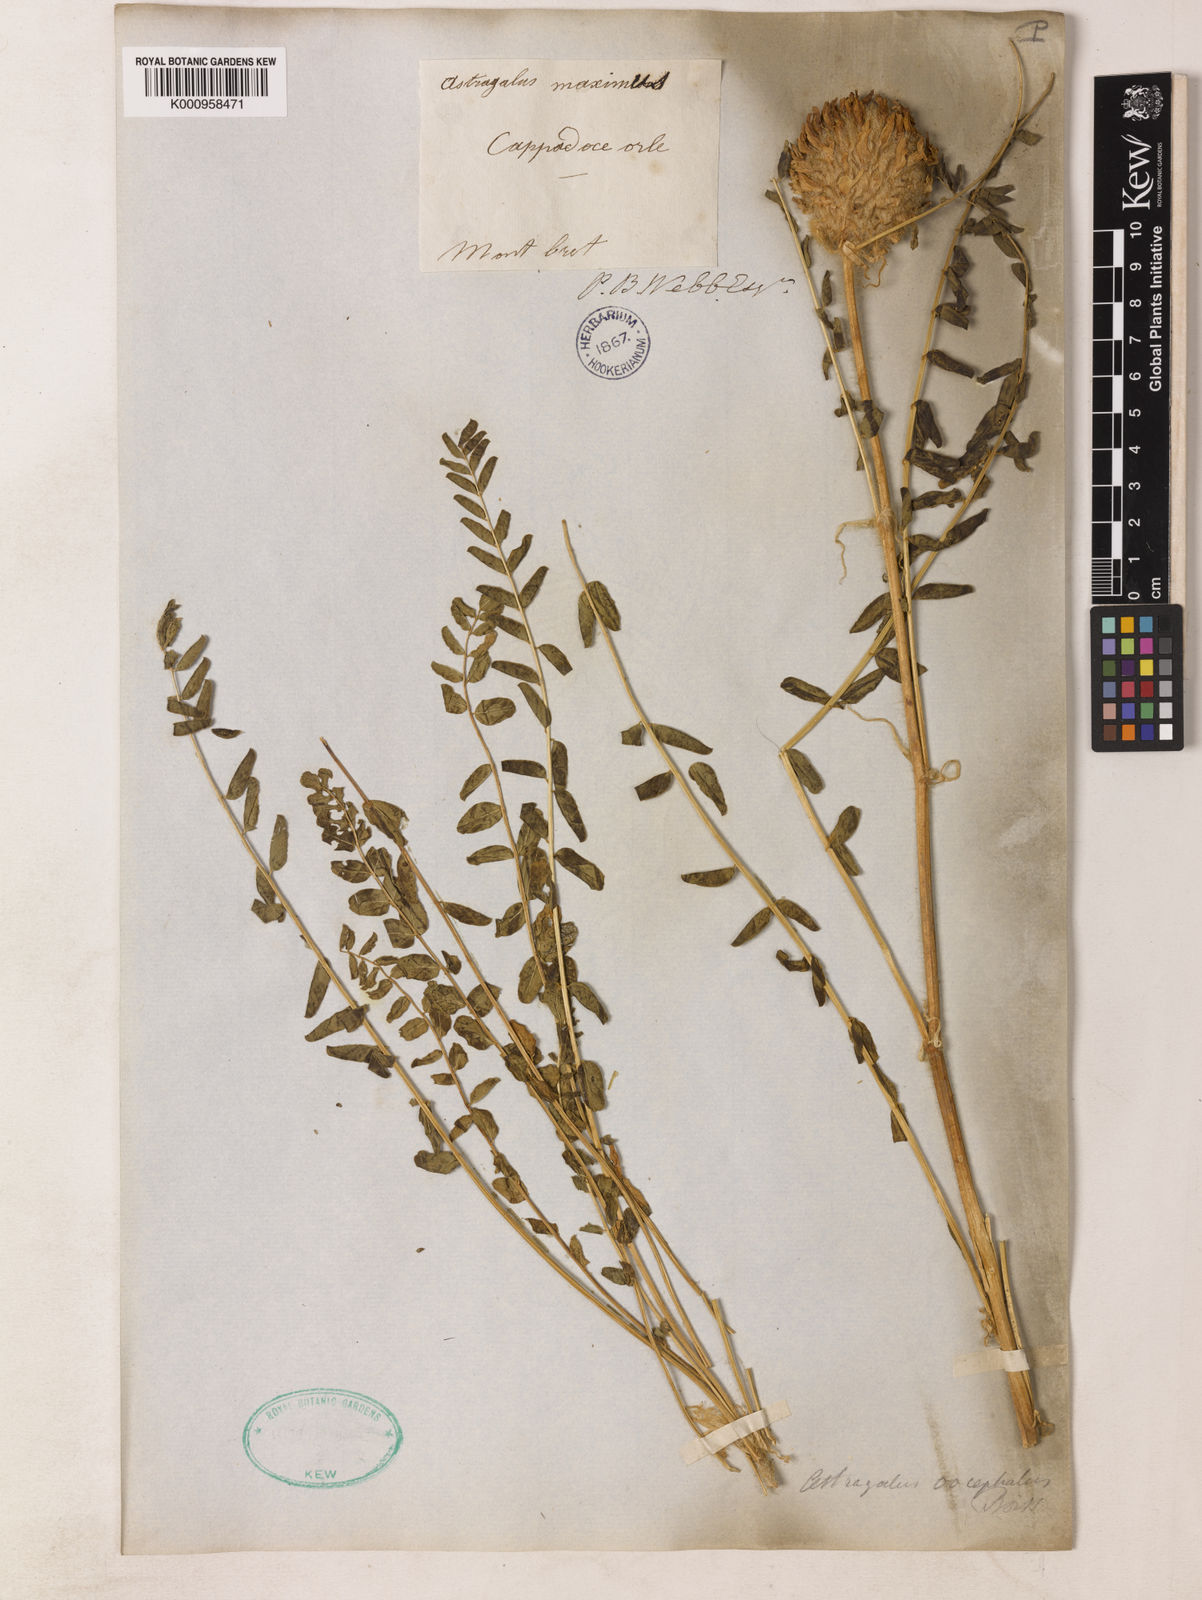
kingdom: Plantae
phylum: Tracheophyta
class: Magnoliopsida
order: Fabales
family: Fabaceae
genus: Astragalus
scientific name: Astragalus oocephalus
